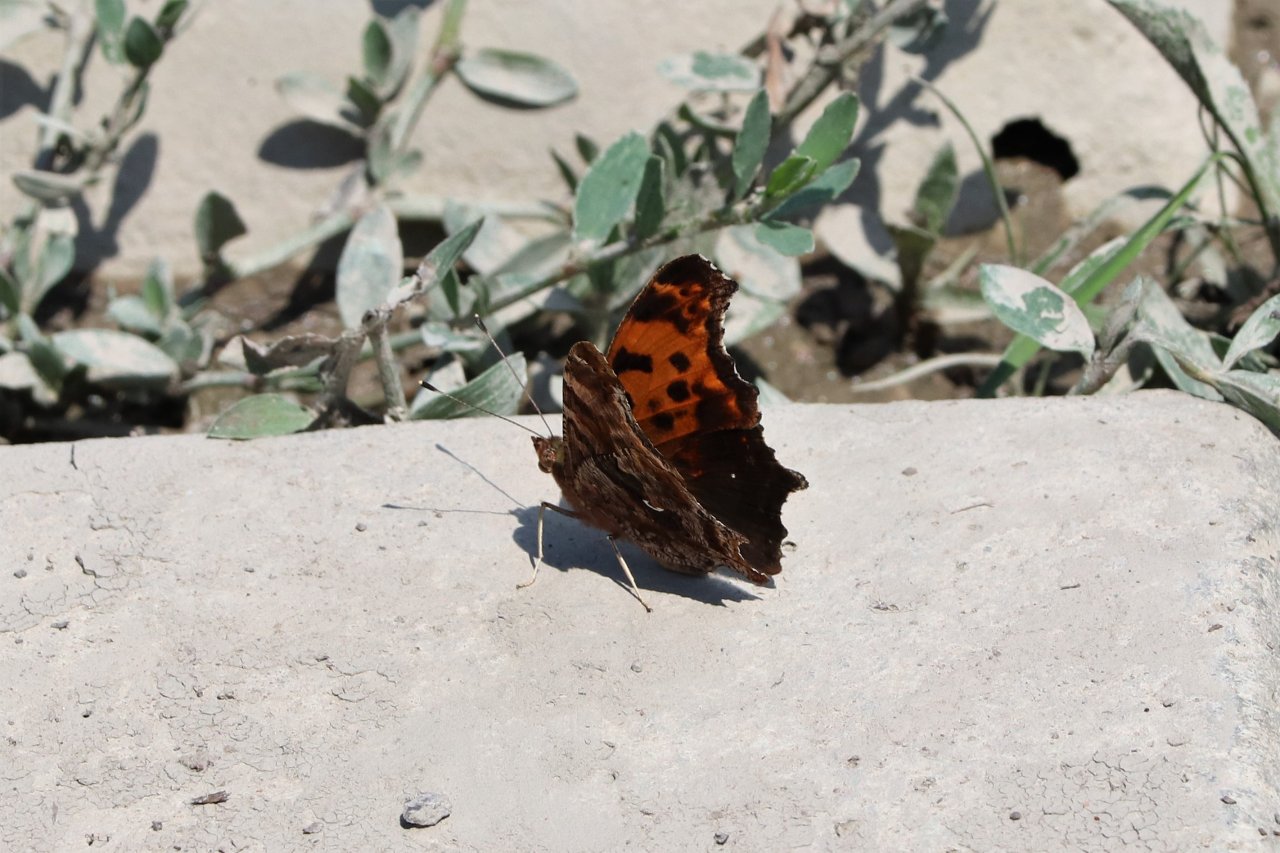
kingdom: Animalia
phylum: Arthropoda
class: Insecta
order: Lepidoptera
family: Nymphalidae
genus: Polygonia
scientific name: Polygonia comma
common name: Eastern Comma
